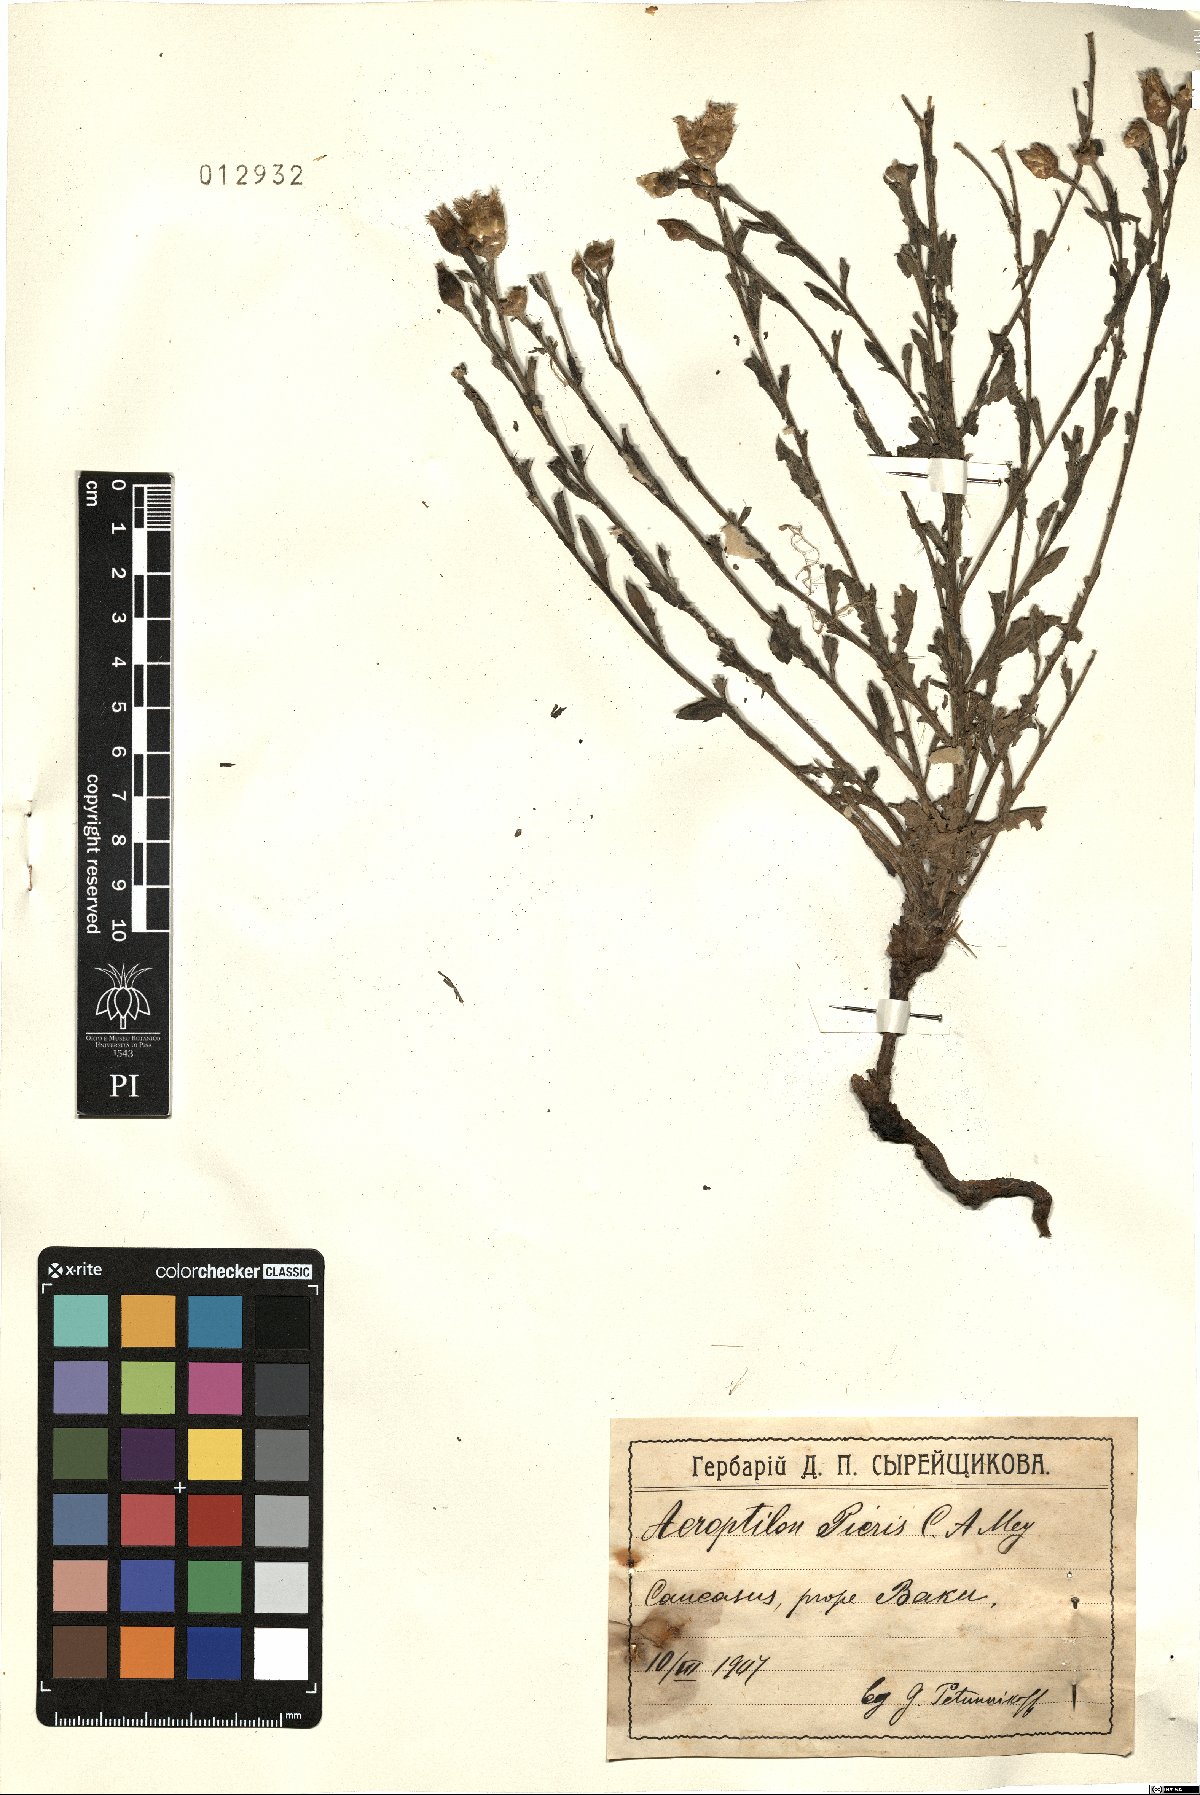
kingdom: Plantae
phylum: Tracheophyta
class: Magnoliopsida
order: Asterales
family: Asteraceae
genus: Leuzea
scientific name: Leuzea repens
